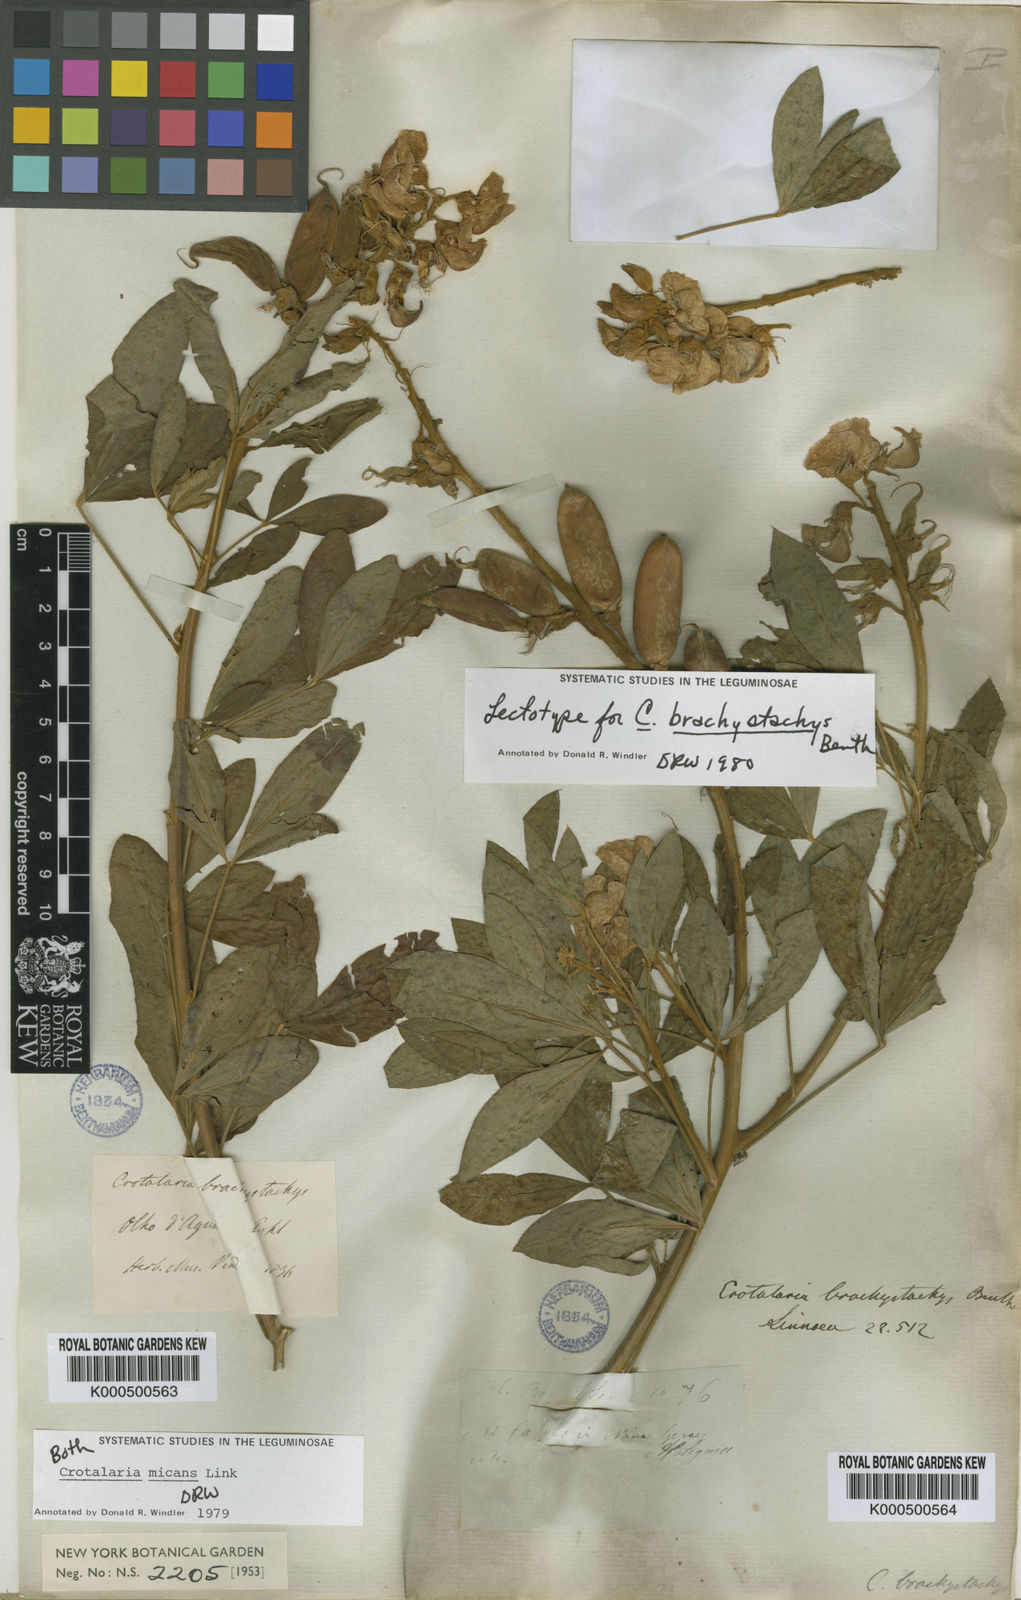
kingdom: Plantae
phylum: Tracheophyta
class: Magnoliopsida
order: Fabales
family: Fabaceae
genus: Crotalaria
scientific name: Crotalaria micans
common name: Caracas rattlebox
